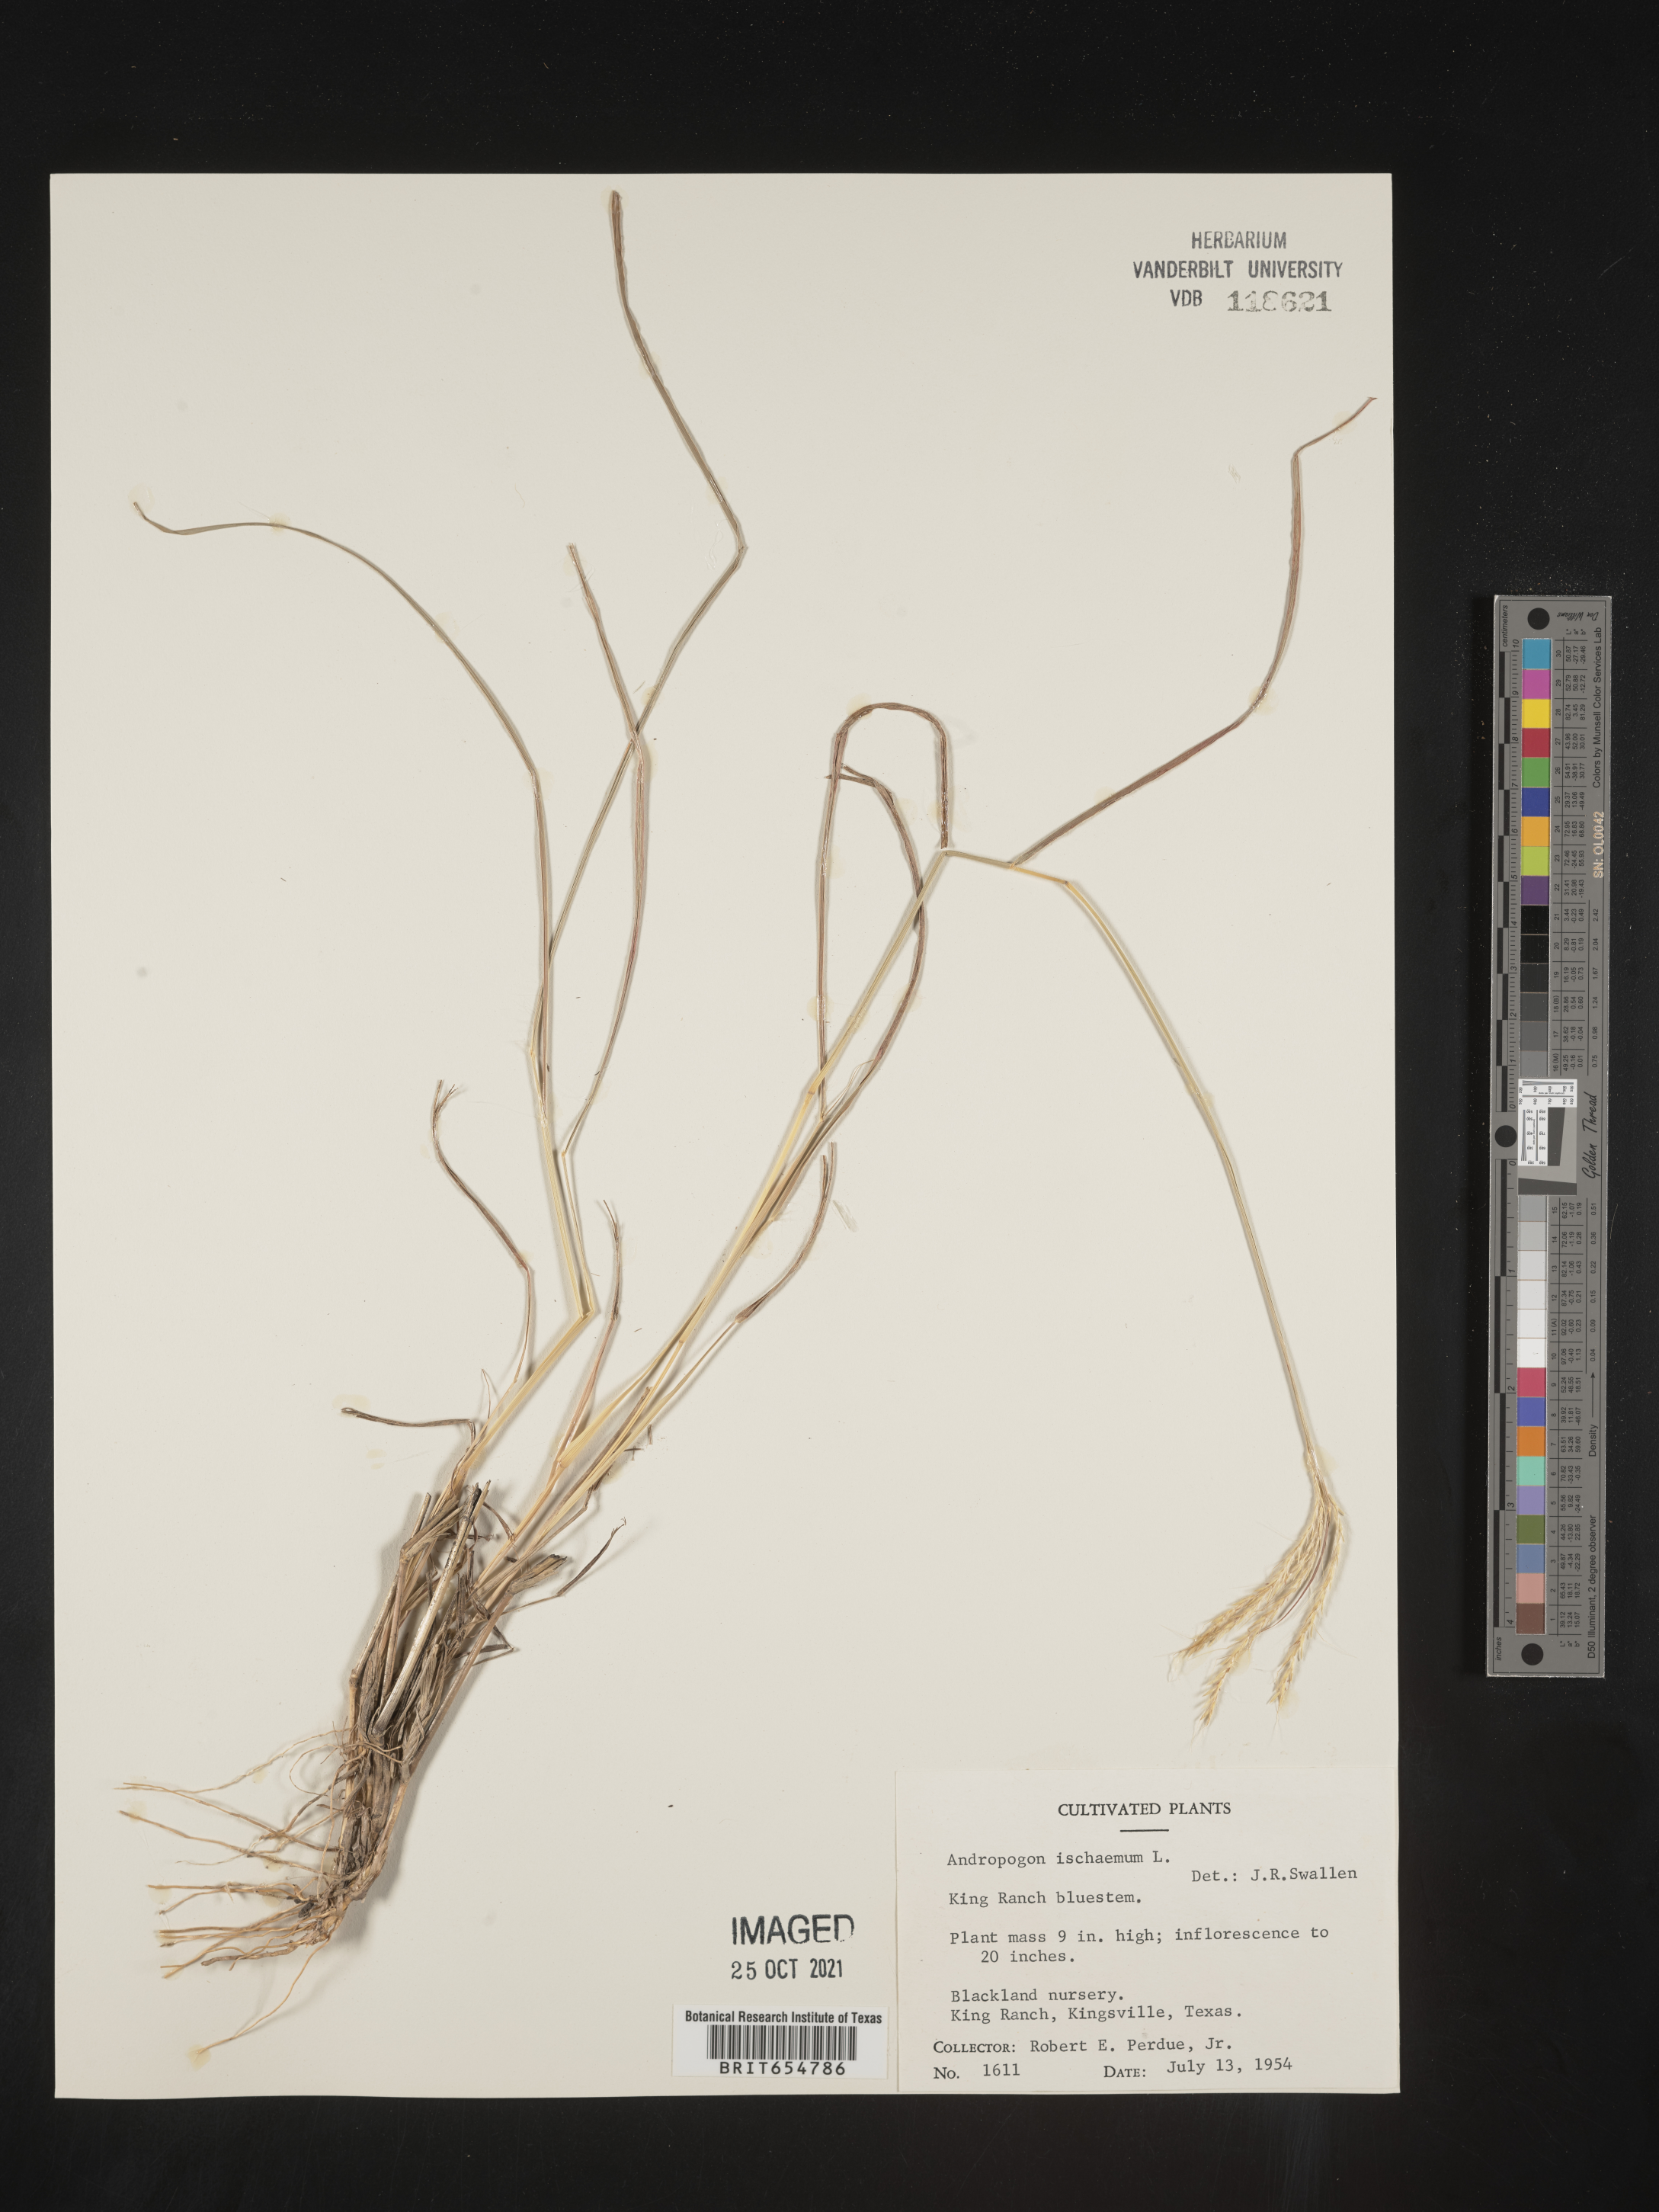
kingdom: Plantae
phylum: Tracheophyta
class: Liliopsida
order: Poales
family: Poaceae
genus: Andropogon
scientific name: Andropogon
